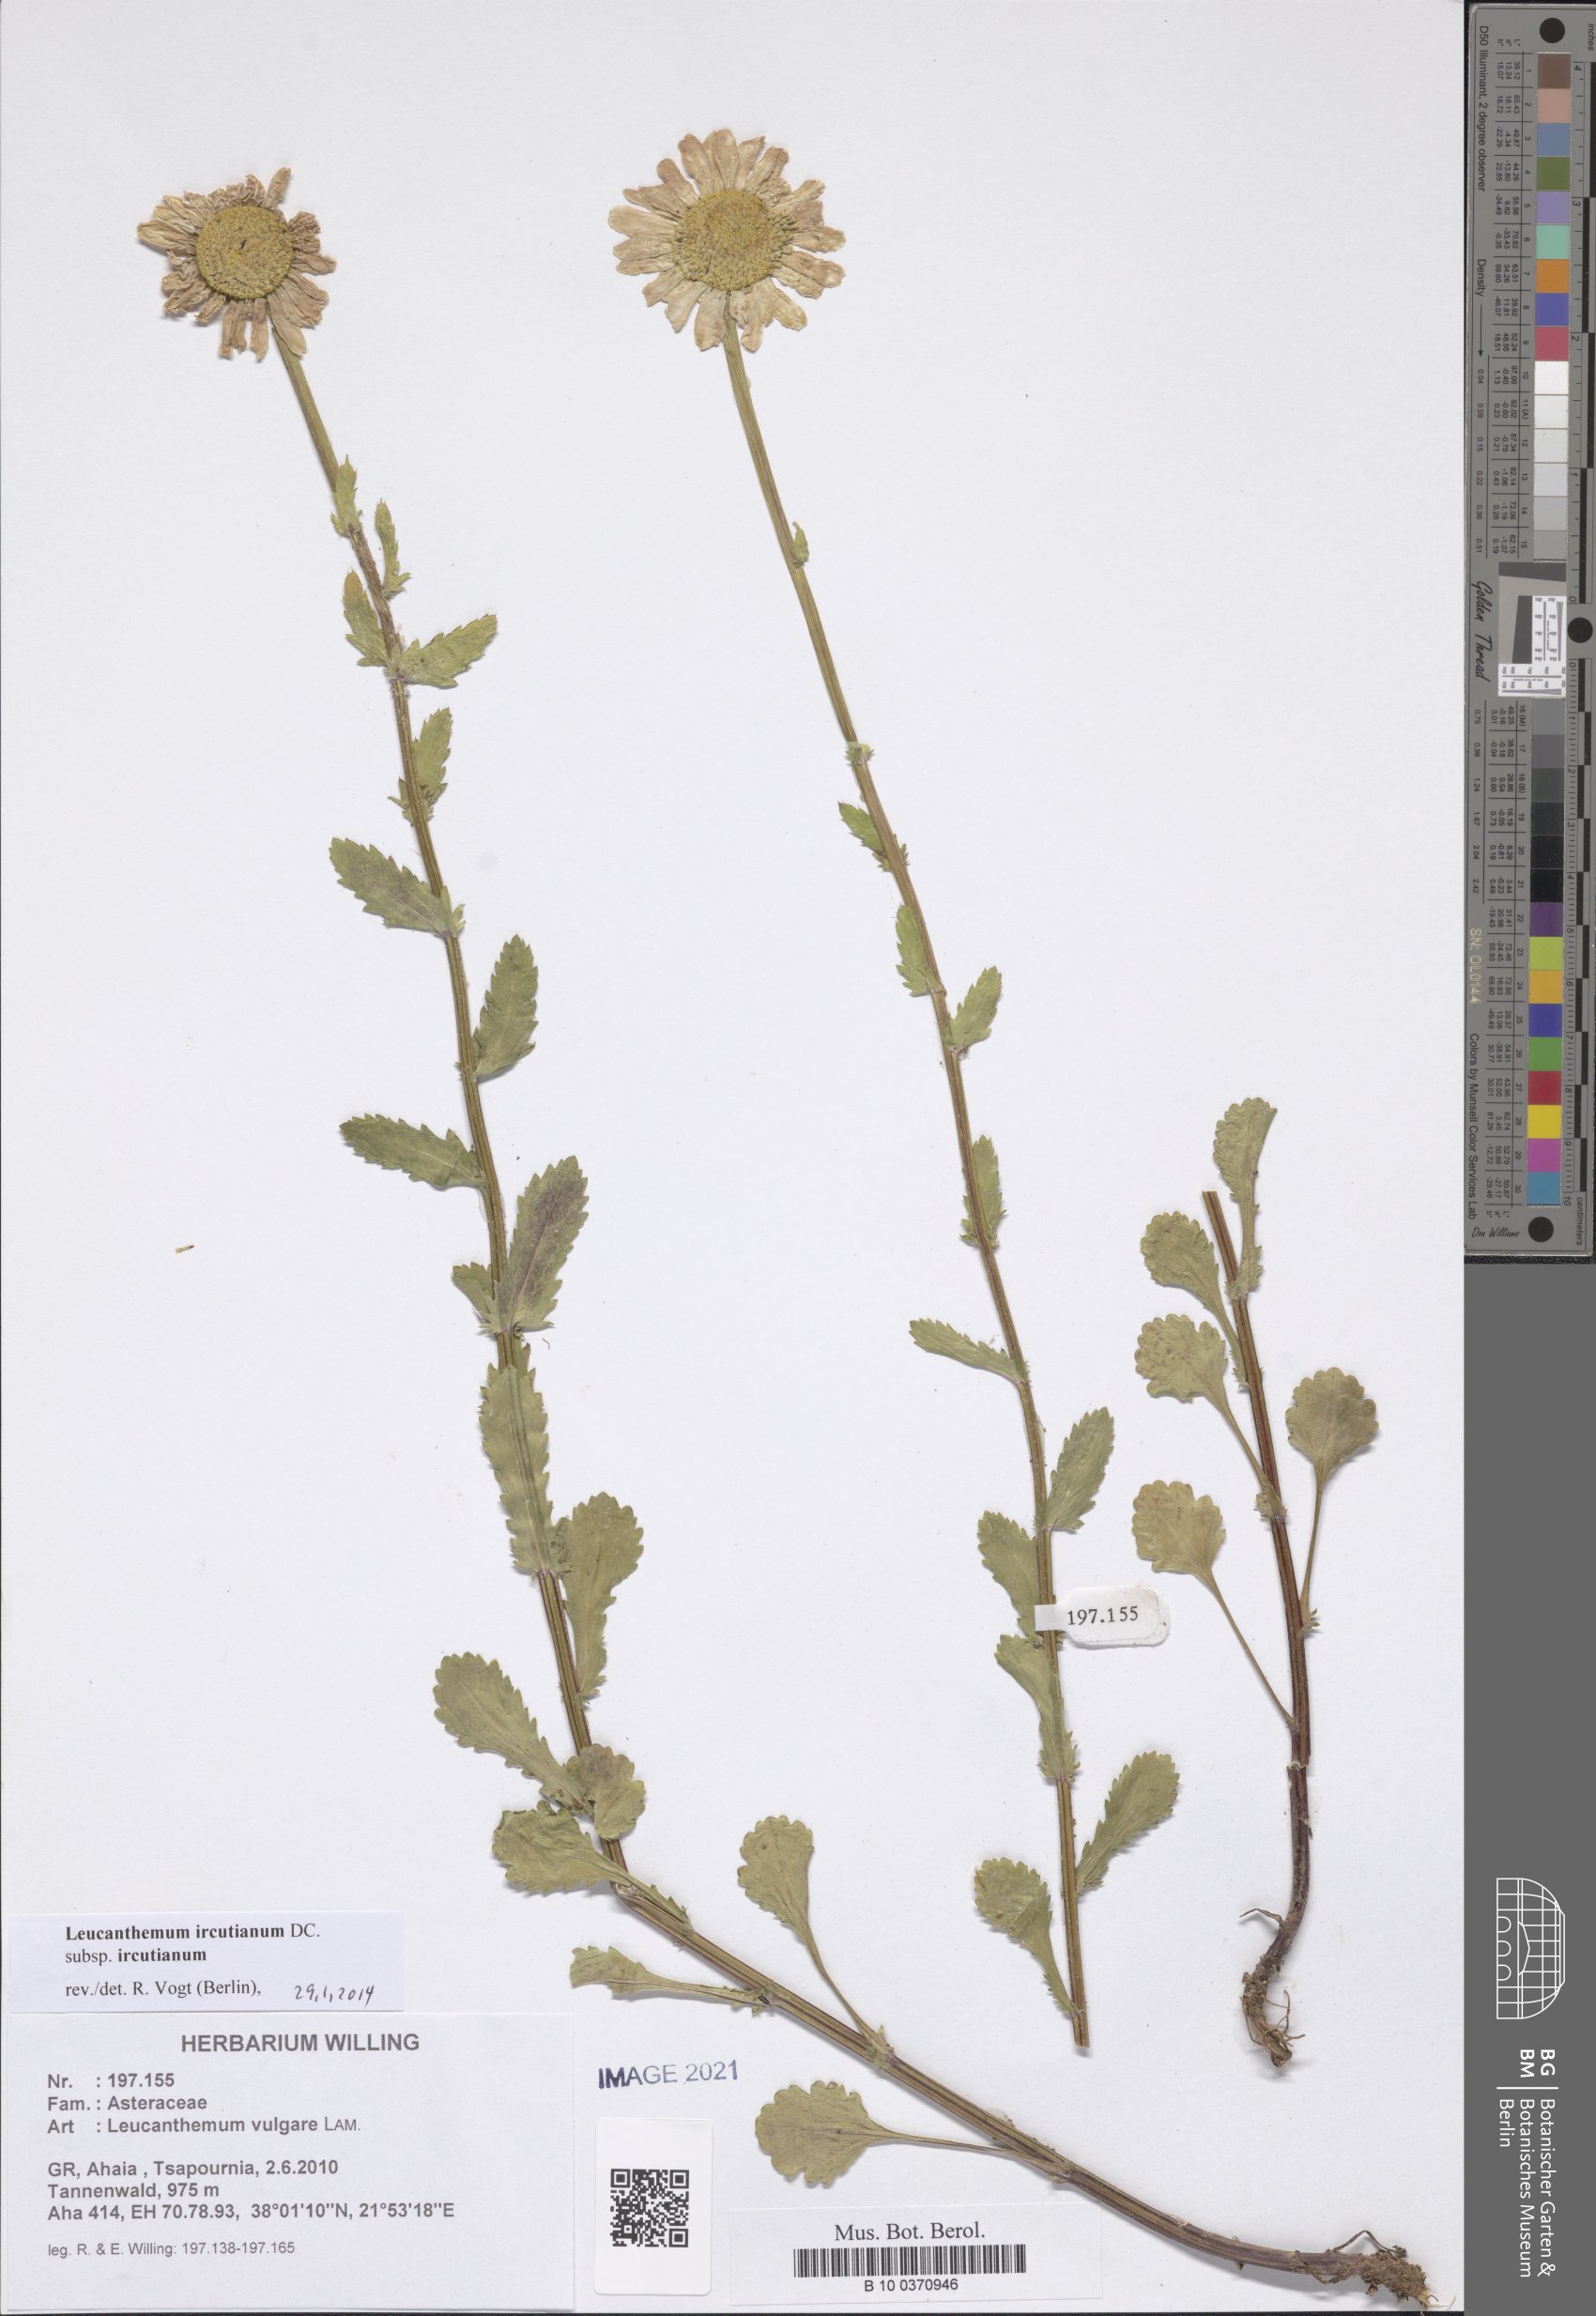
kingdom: Plantae
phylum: Tracheophyta
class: Magnoliopsida
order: Asterales
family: Asteraceae
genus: Leucanthemum
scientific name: Leucanthemum ircutianum
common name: Daisy
